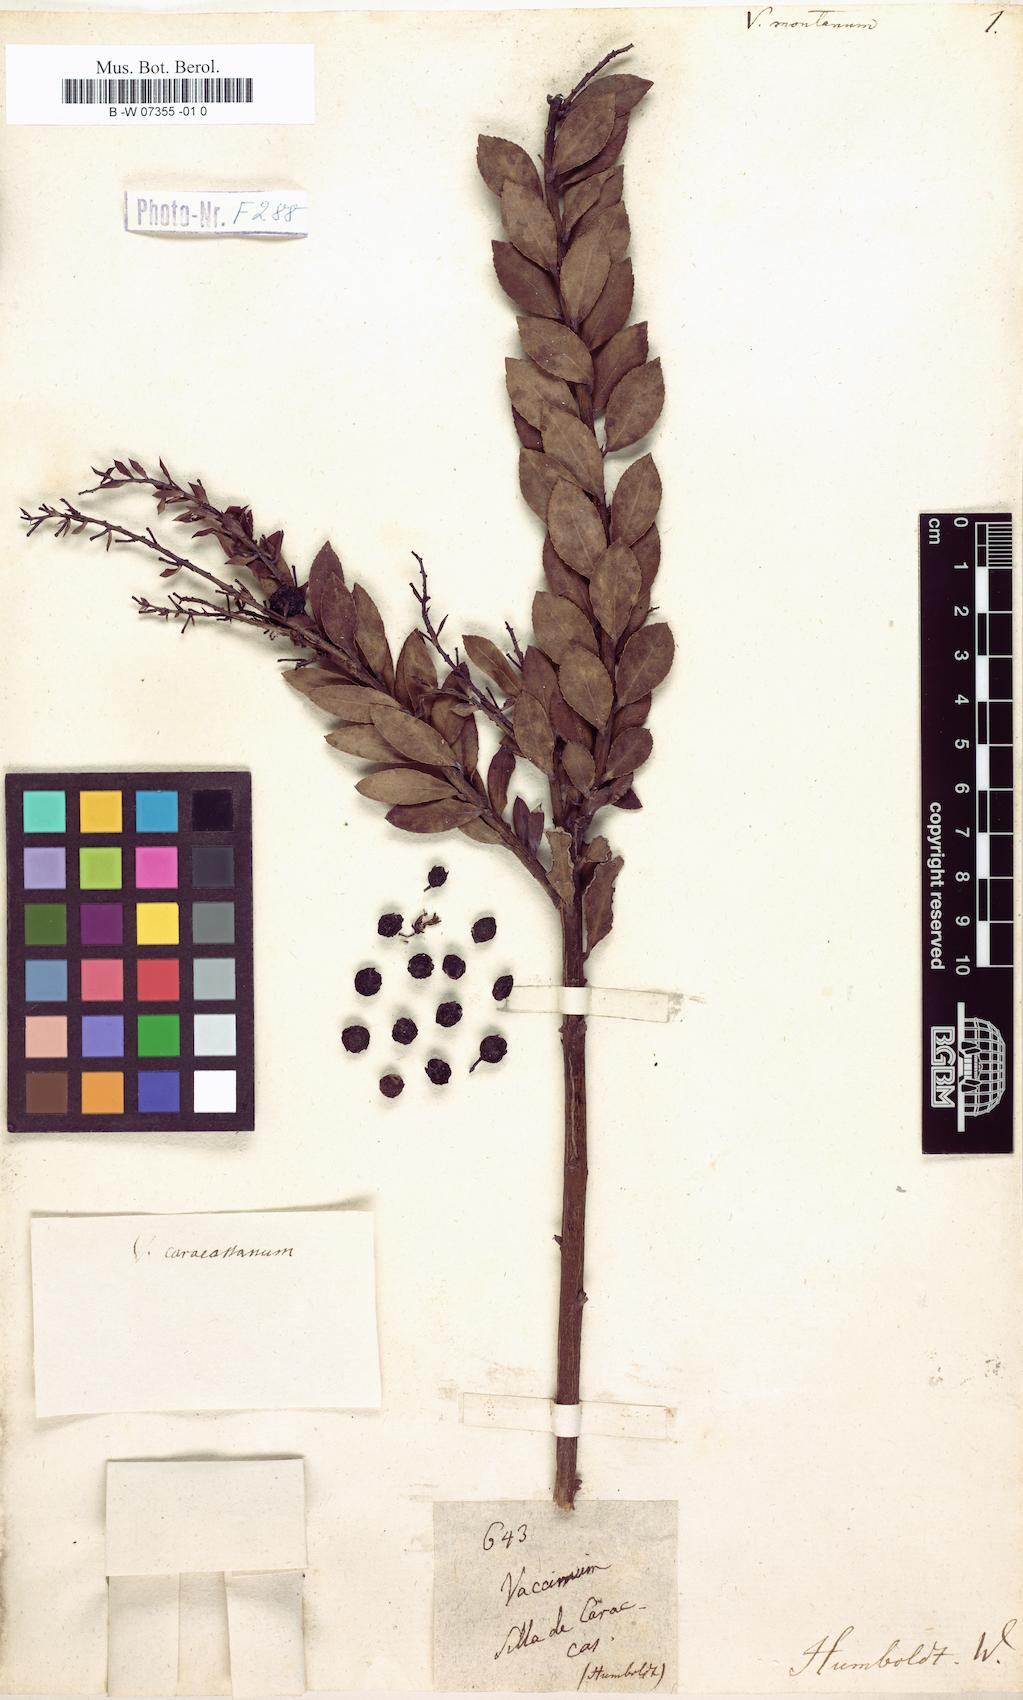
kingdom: Plantae
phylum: Tracheophyta
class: Magnoliopsida
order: Ericales
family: Ericaceae
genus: Gaylussacia
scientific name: Gaylussacia montana
